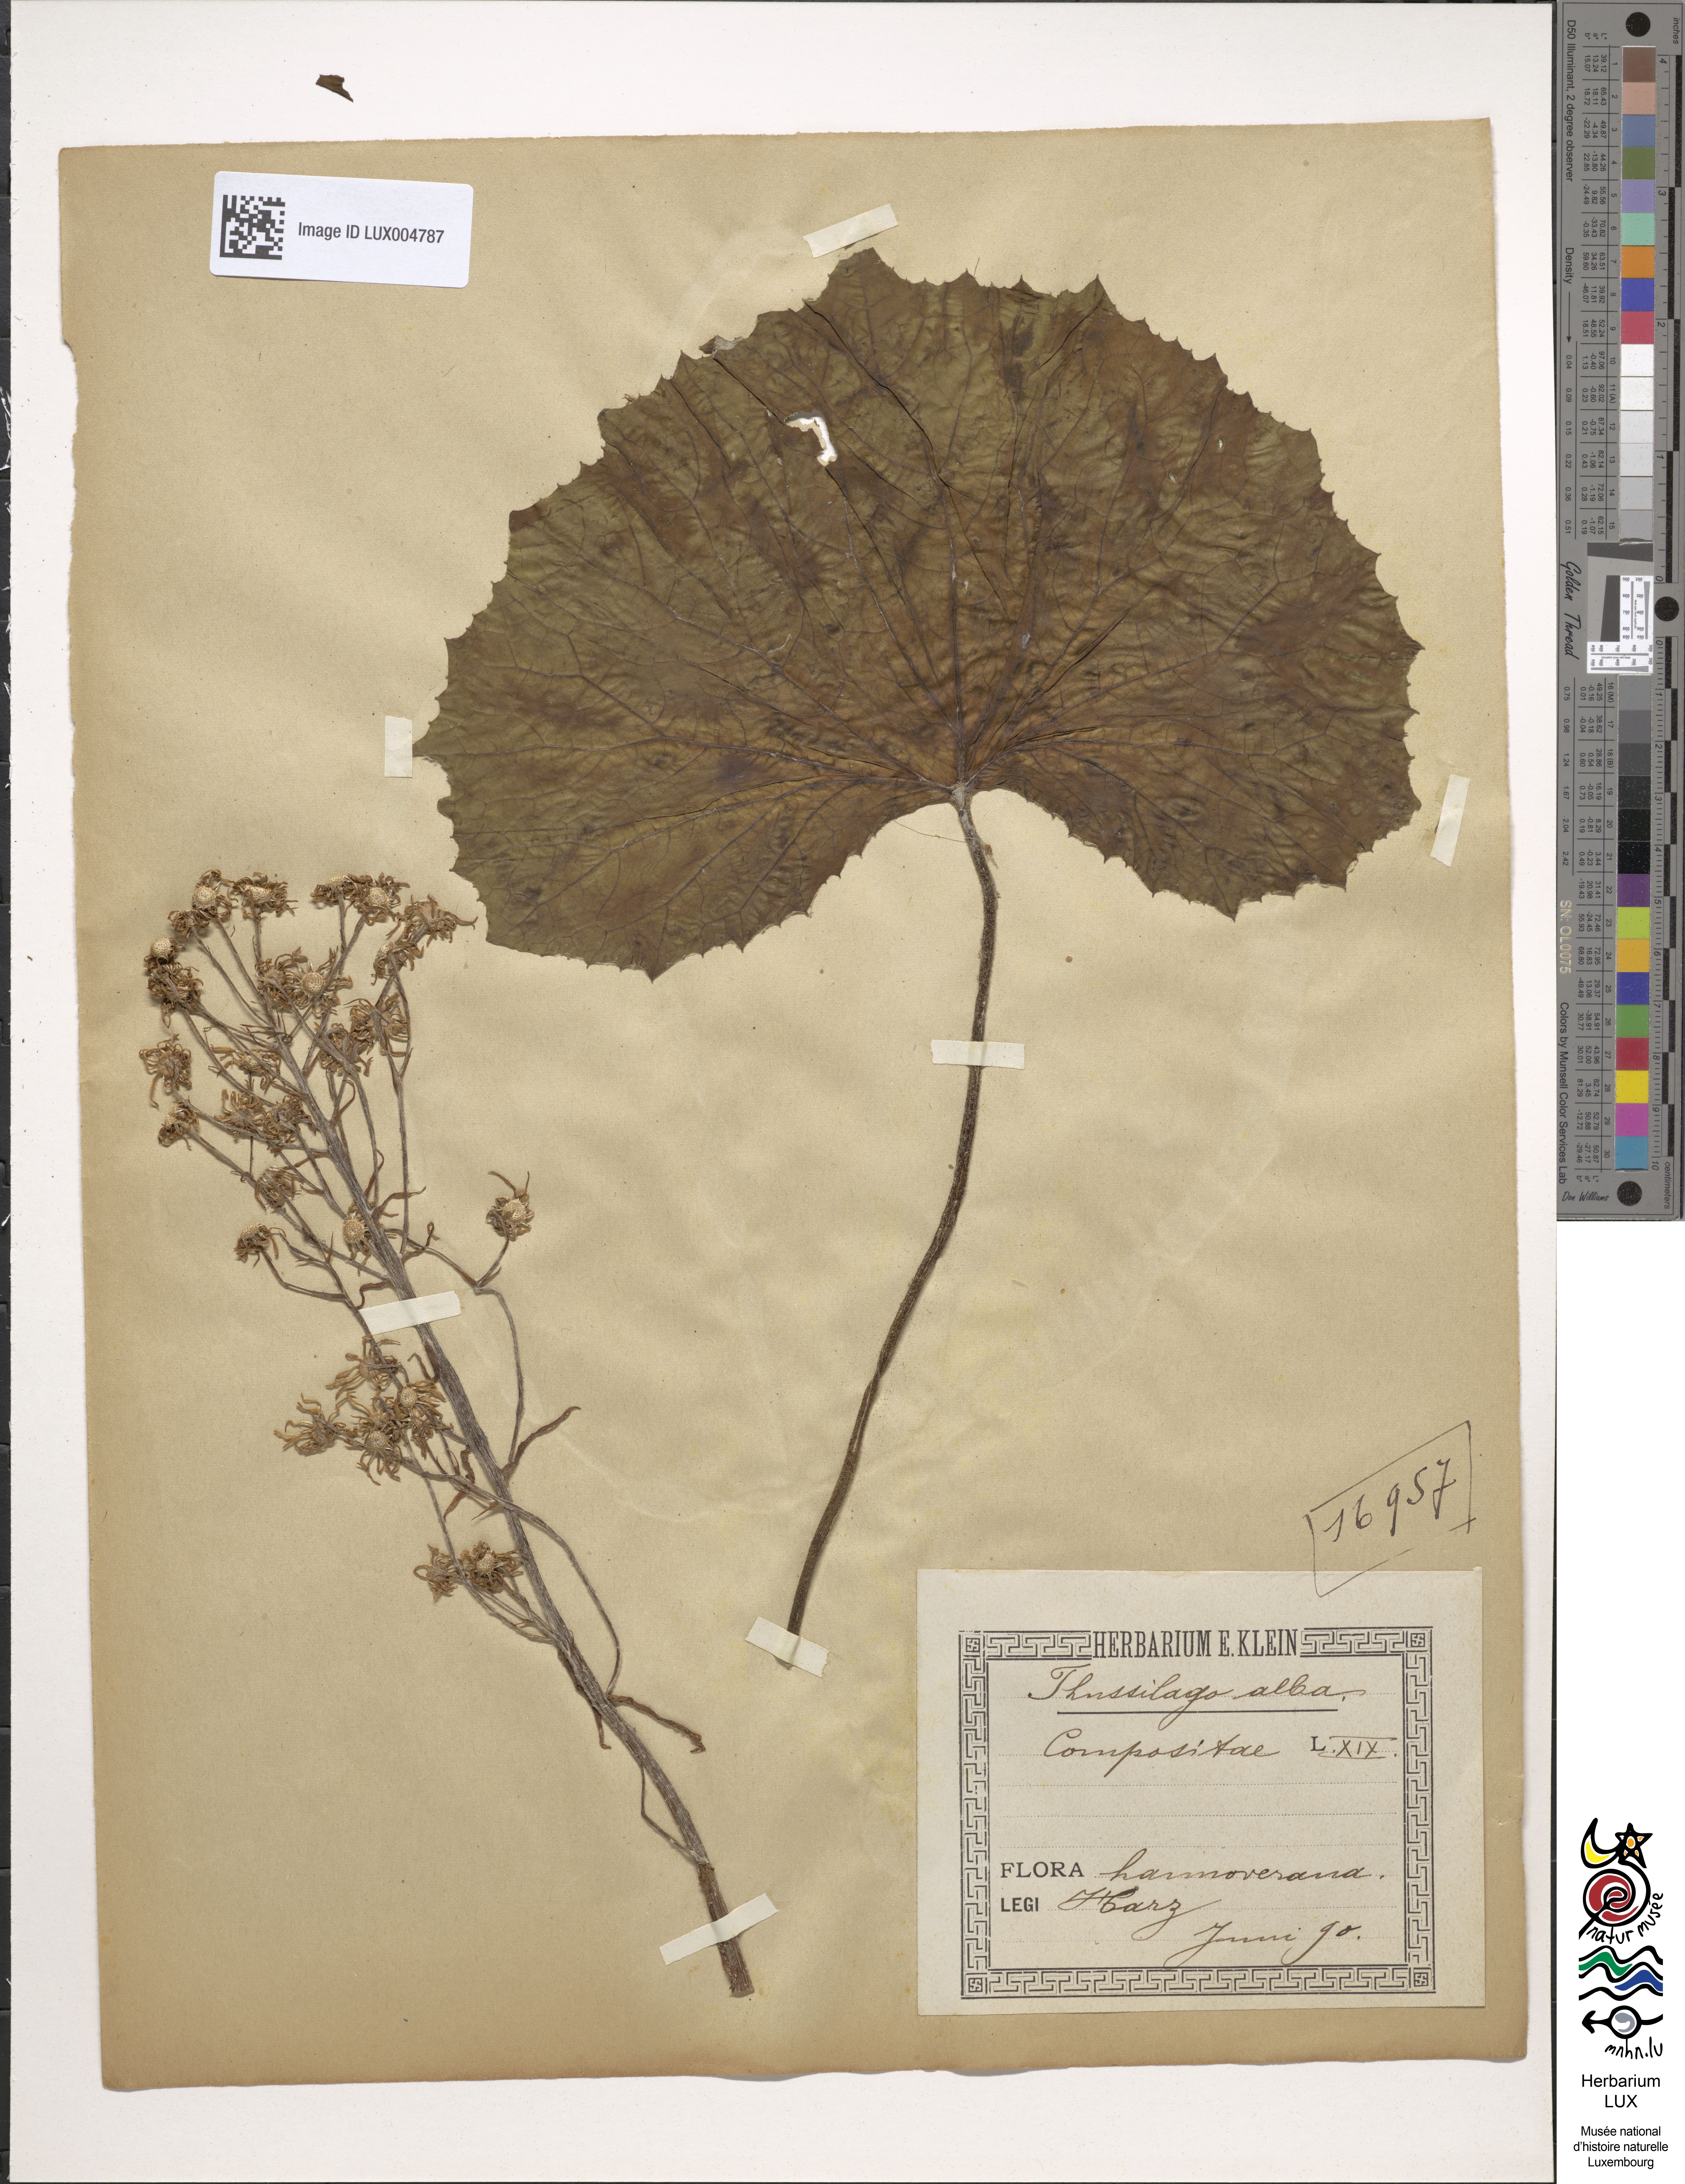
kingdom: Plantae
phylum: Tracheophyta
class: Magnoliopsida
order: Asterales
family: Asteraceae
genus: Petasites
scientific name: Petasites albus
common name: White butterbur
